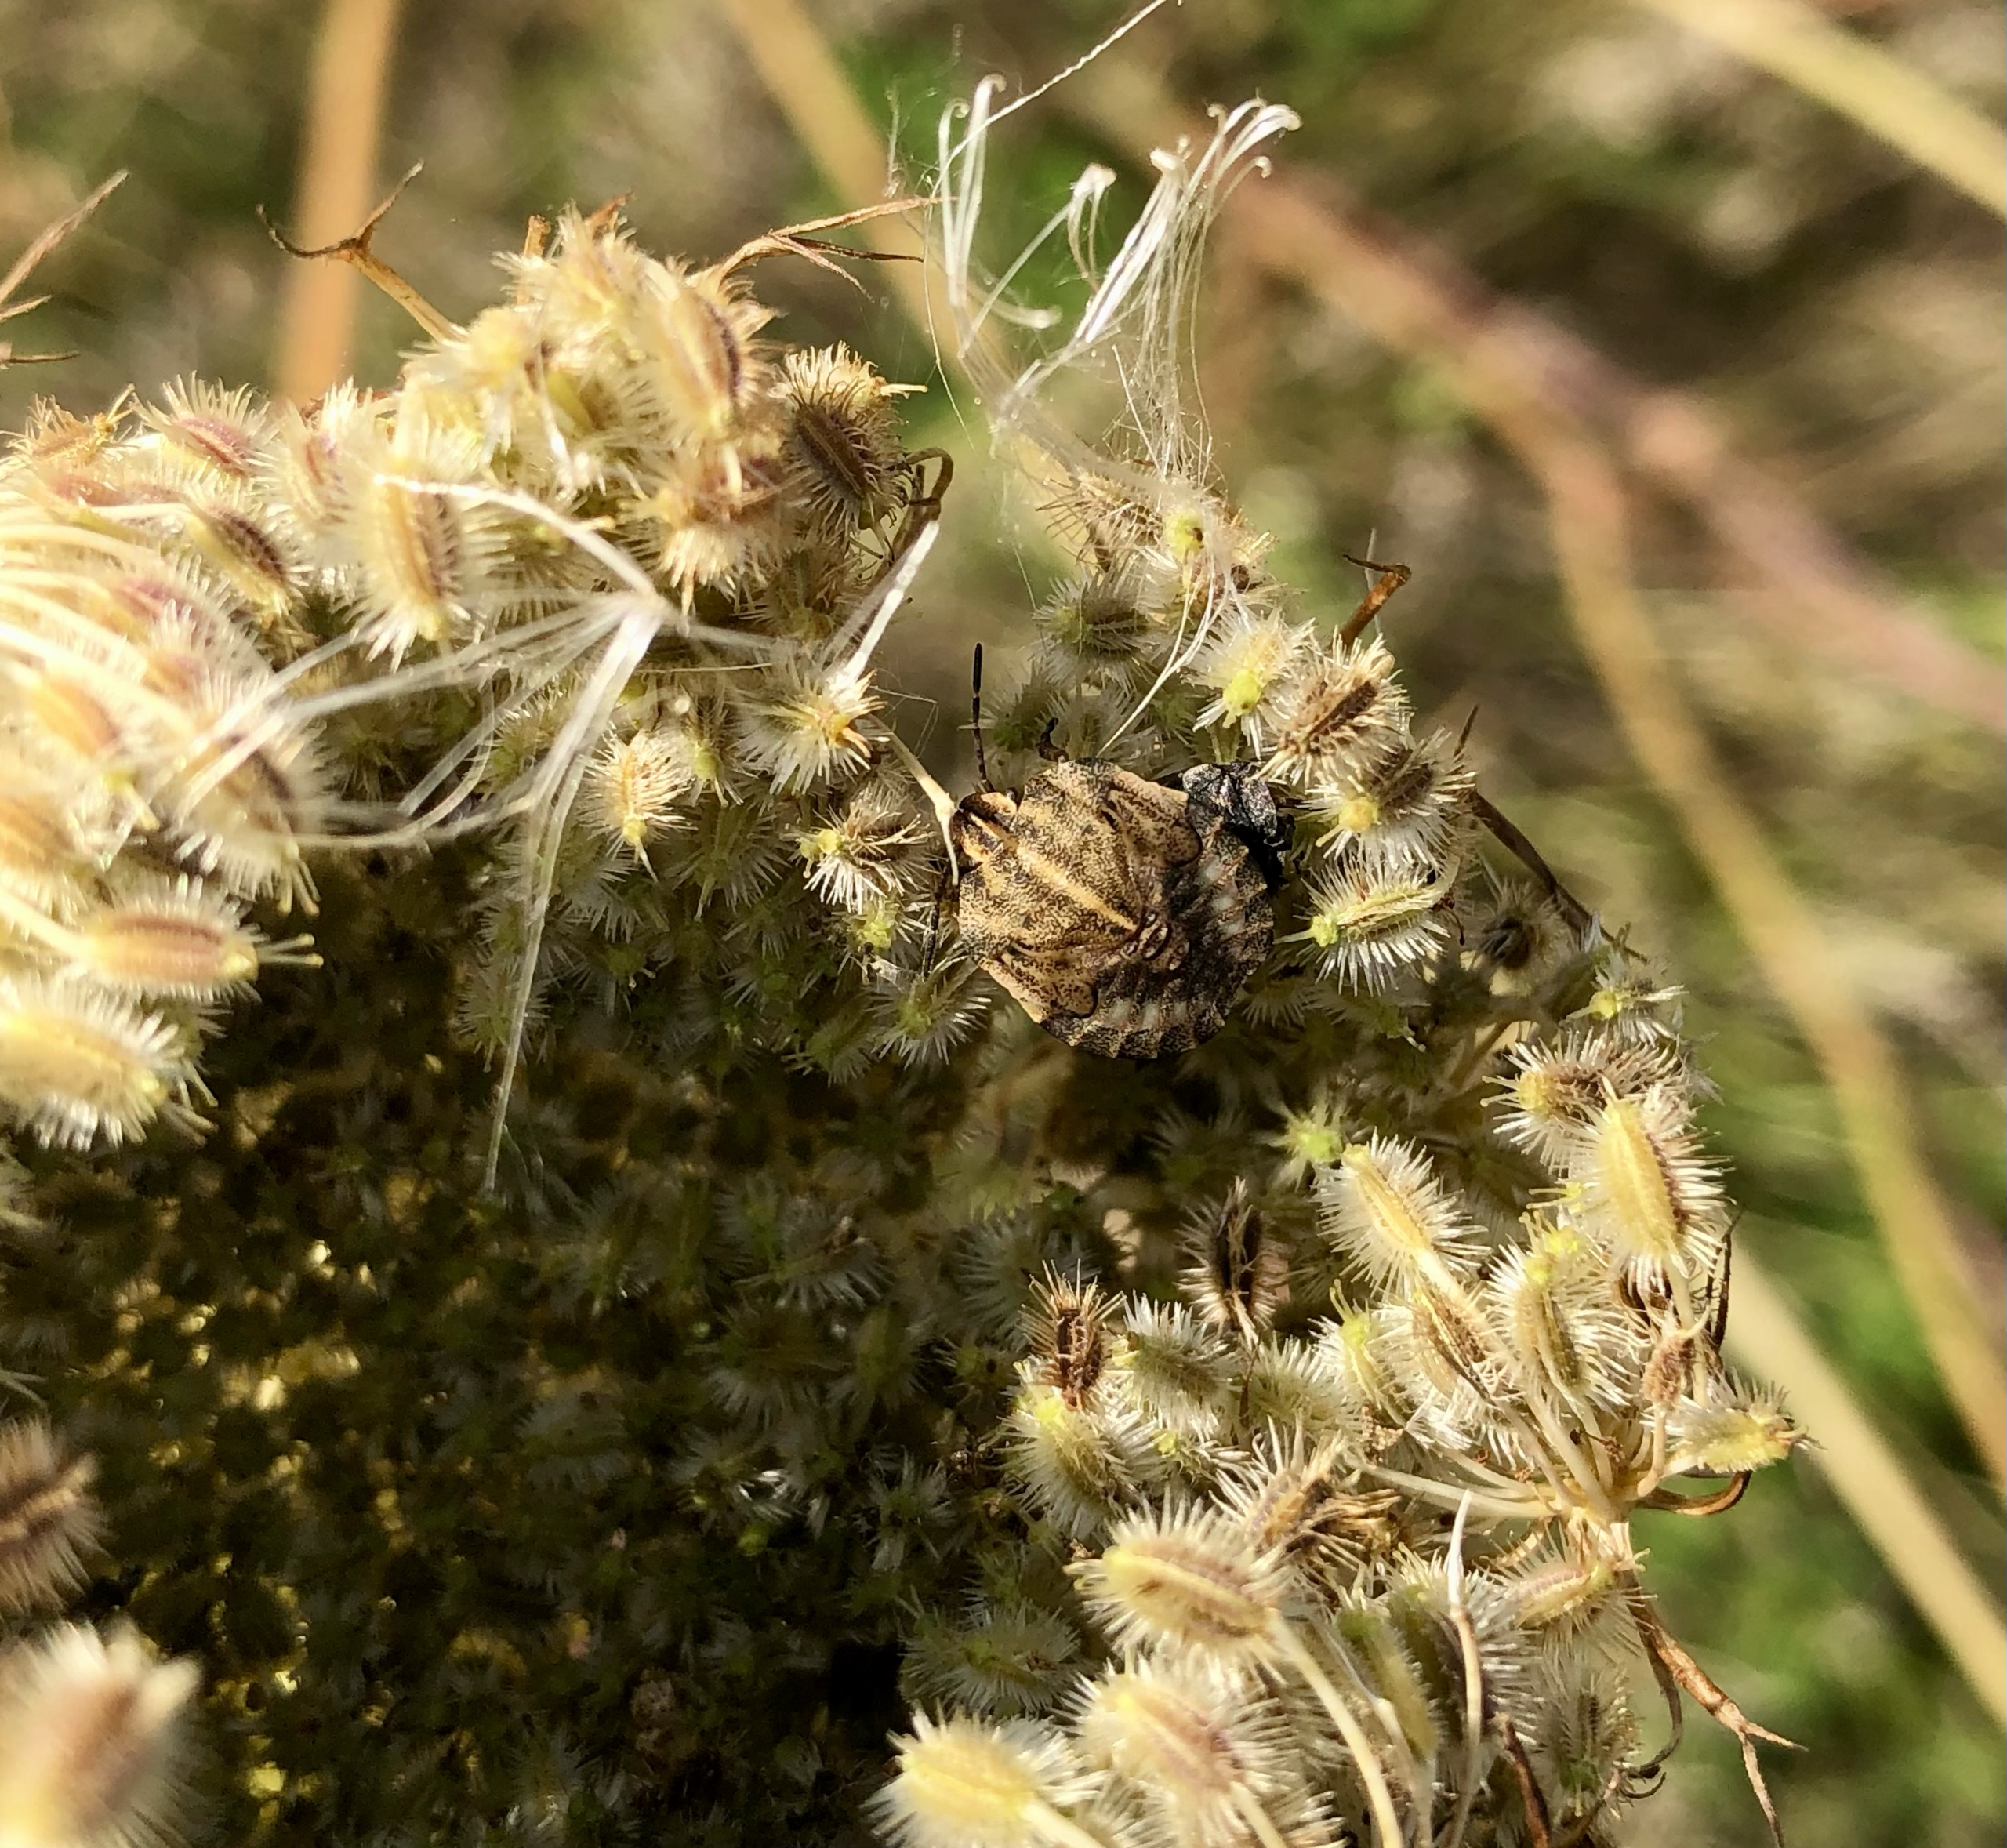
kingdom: Animalia
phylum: Arthropoda
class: Insecta
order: Hemiptera
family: Pentatomidae
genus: Graphosoma
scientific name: Graphosoma italicum
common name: Stribetæge
